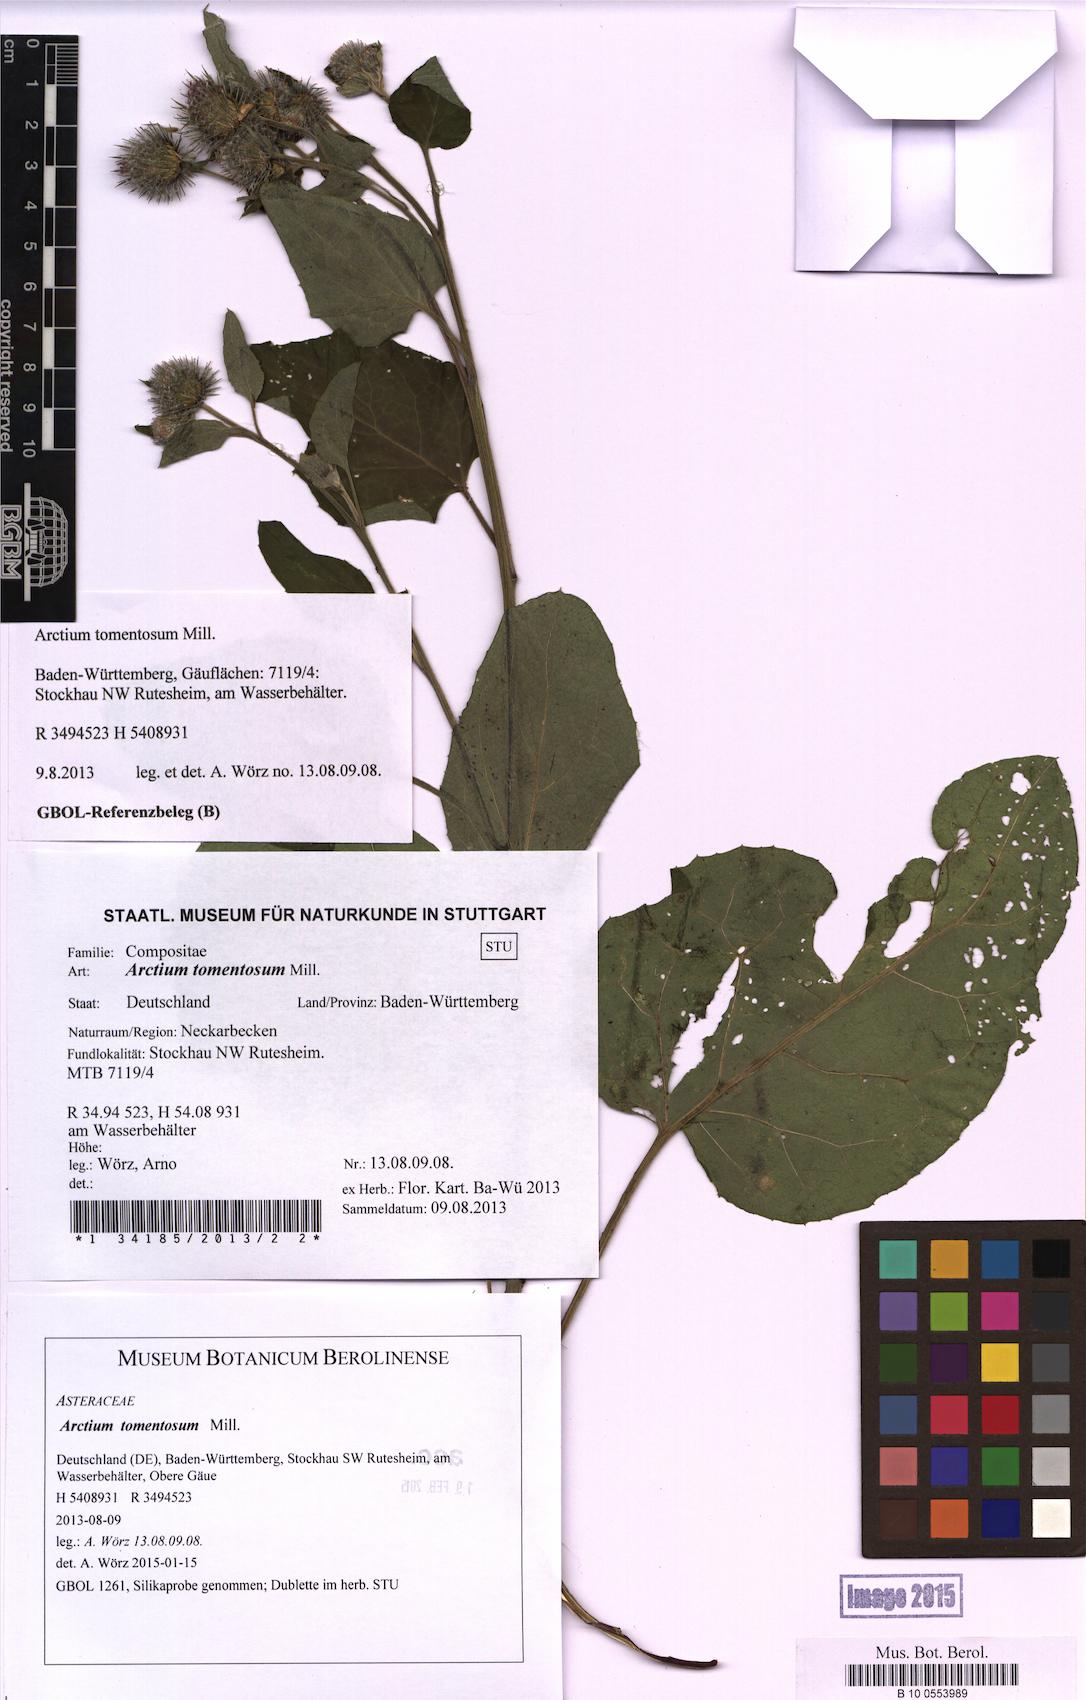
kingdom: Plantae
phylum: Tracheophyta
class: Magnoliopsida
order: Asterales
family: Asteraceae
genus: Arctium
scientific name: Arctium tomentosum
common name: Woolly burdock
